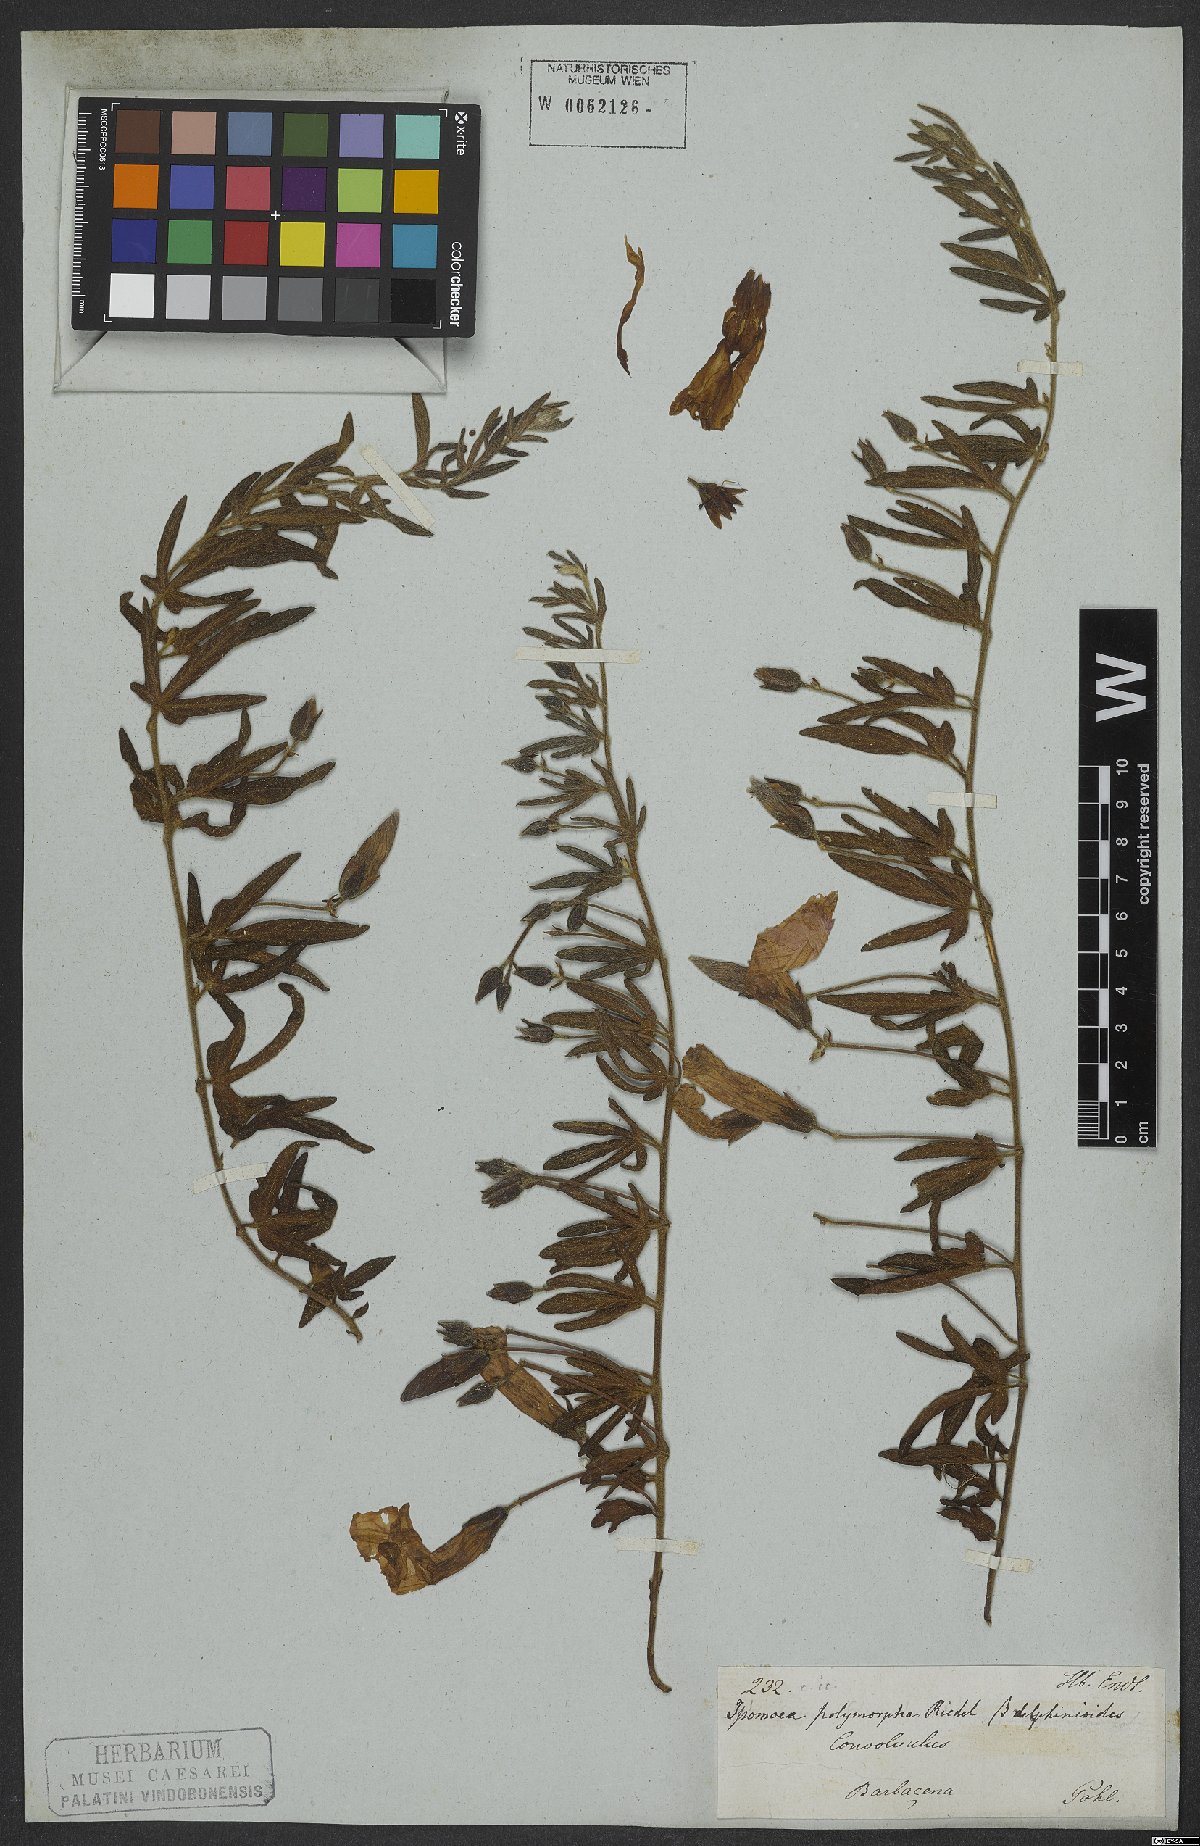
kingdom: Plantae
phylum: Tracheophyta
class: Magnoliopsida
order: Solanales
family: Convolvulaceae
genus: Ipomoea
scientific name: Ipomoea polymorpha
